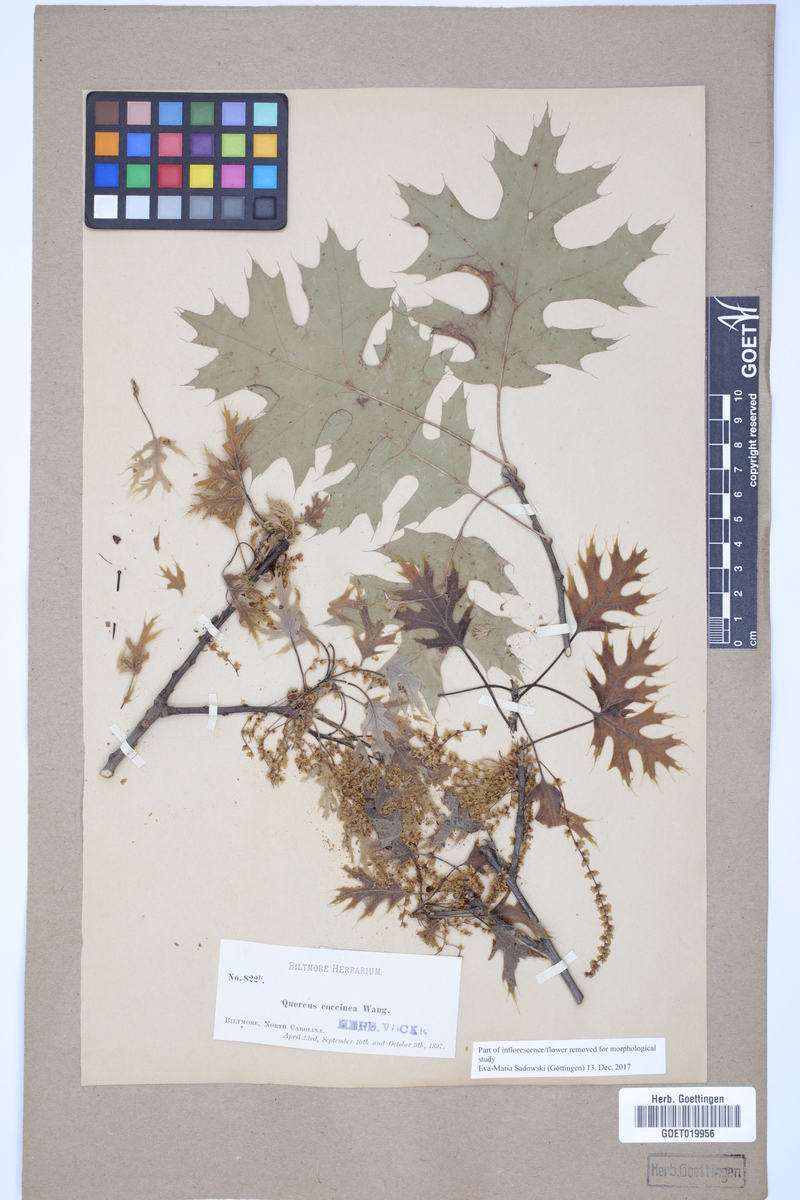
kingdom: Plantae
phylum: Tracheophyta
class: Magnoliopsida
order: Fagales
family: Fagaceae
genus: Quercus
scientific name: Quercus coccinea
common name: Scarlet oak
